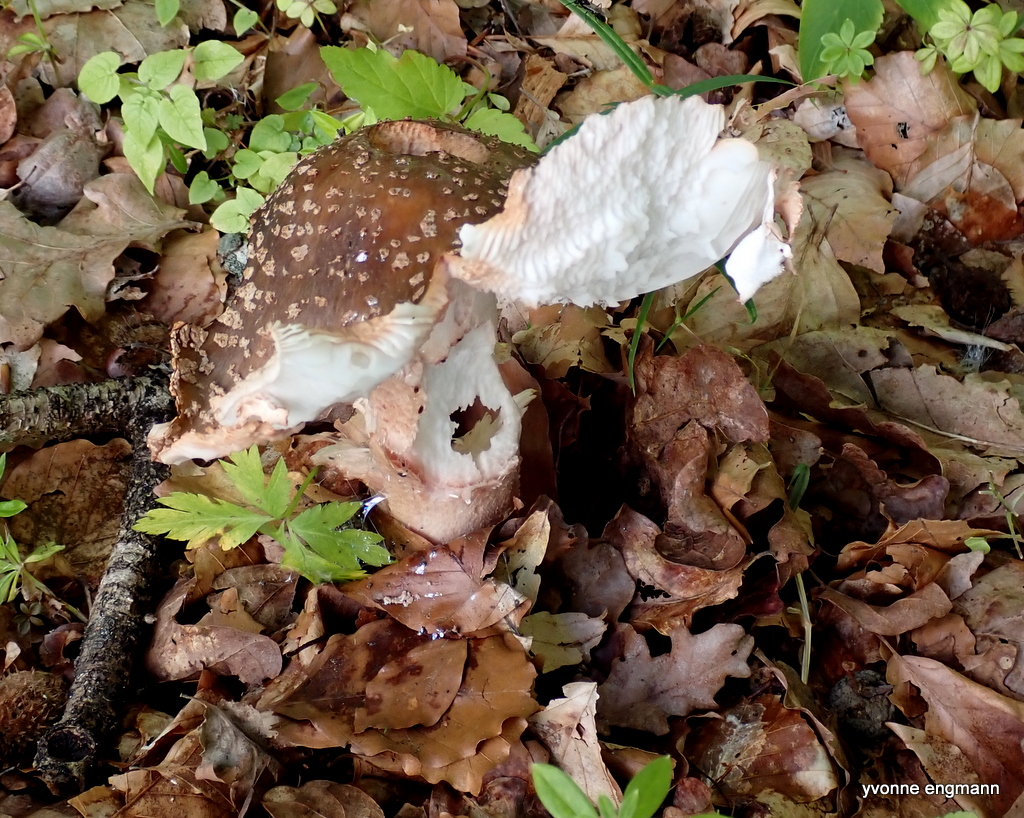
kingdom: Fungi
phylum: Basidiomycota
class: Agaricomycetes
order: Agaricales
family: Amanitaceae
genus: Amanita
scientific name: Amanita rubescens
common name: rødmende fluesvamp
